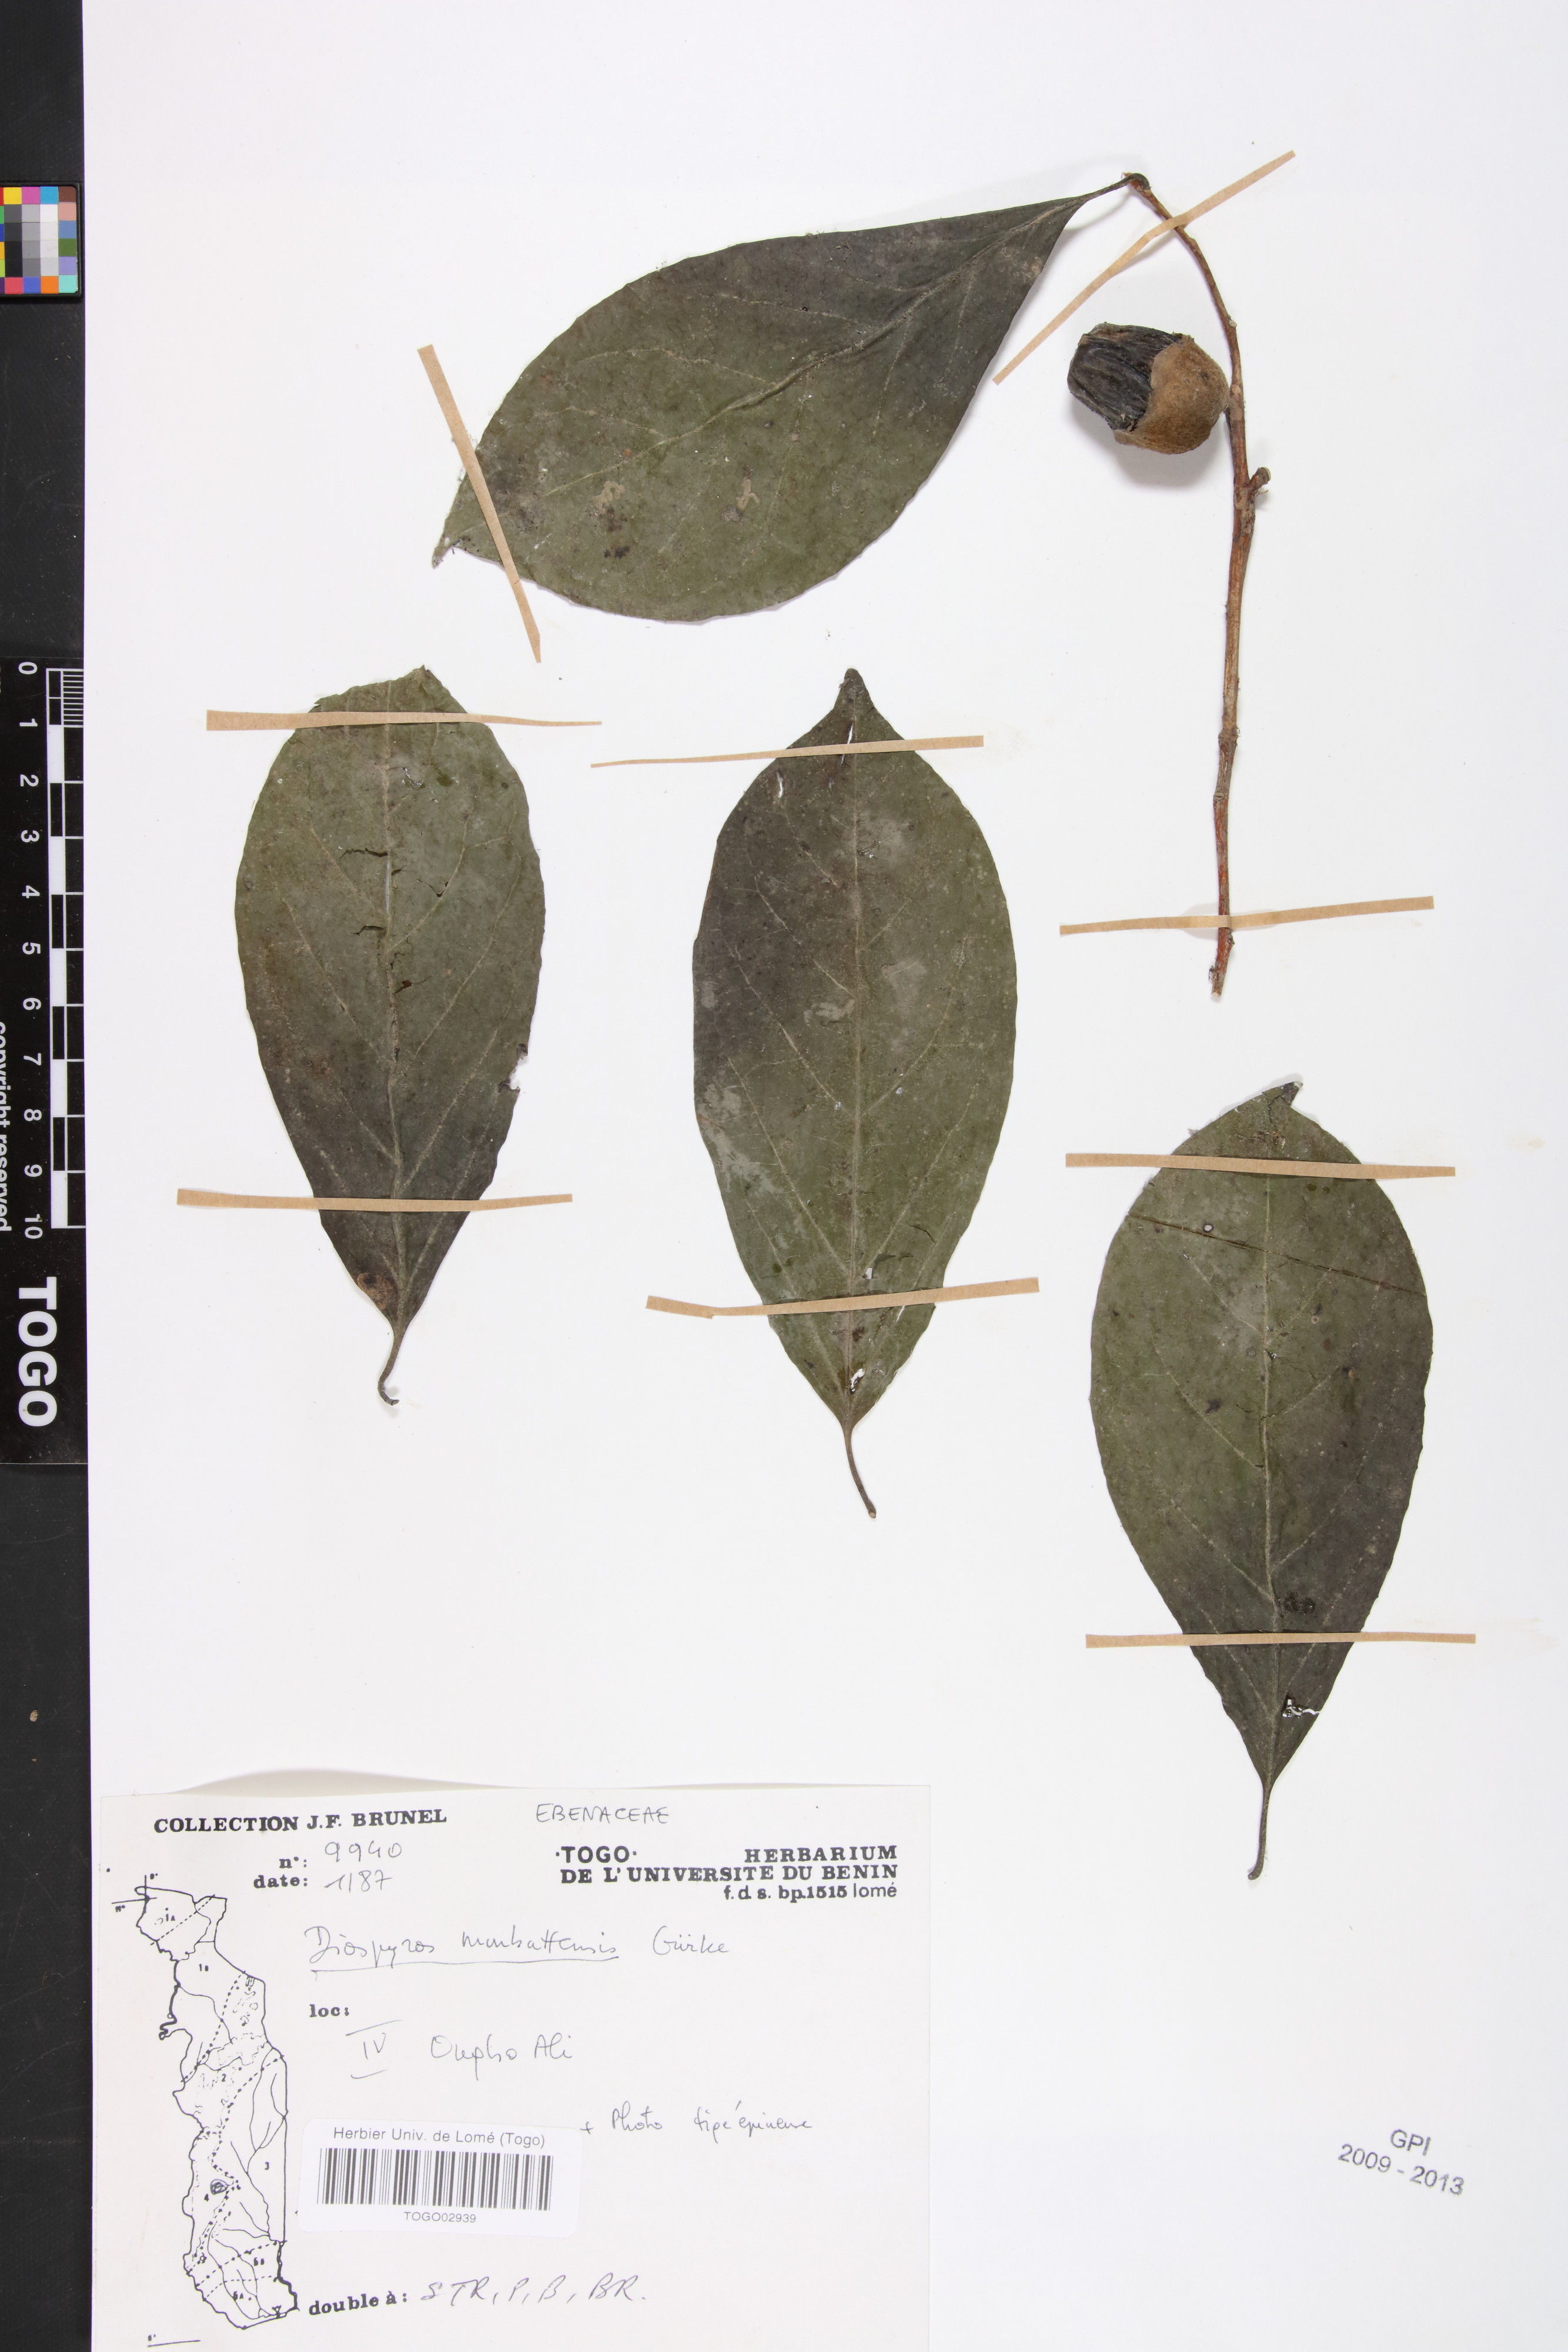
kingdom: Plantae
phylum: Tracheophyta
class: Magnoliopsida
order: Ericales
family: Ebenaceae
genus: Diospyros
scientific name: Diospyros monbuttensis
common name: Walking-stick ebony
